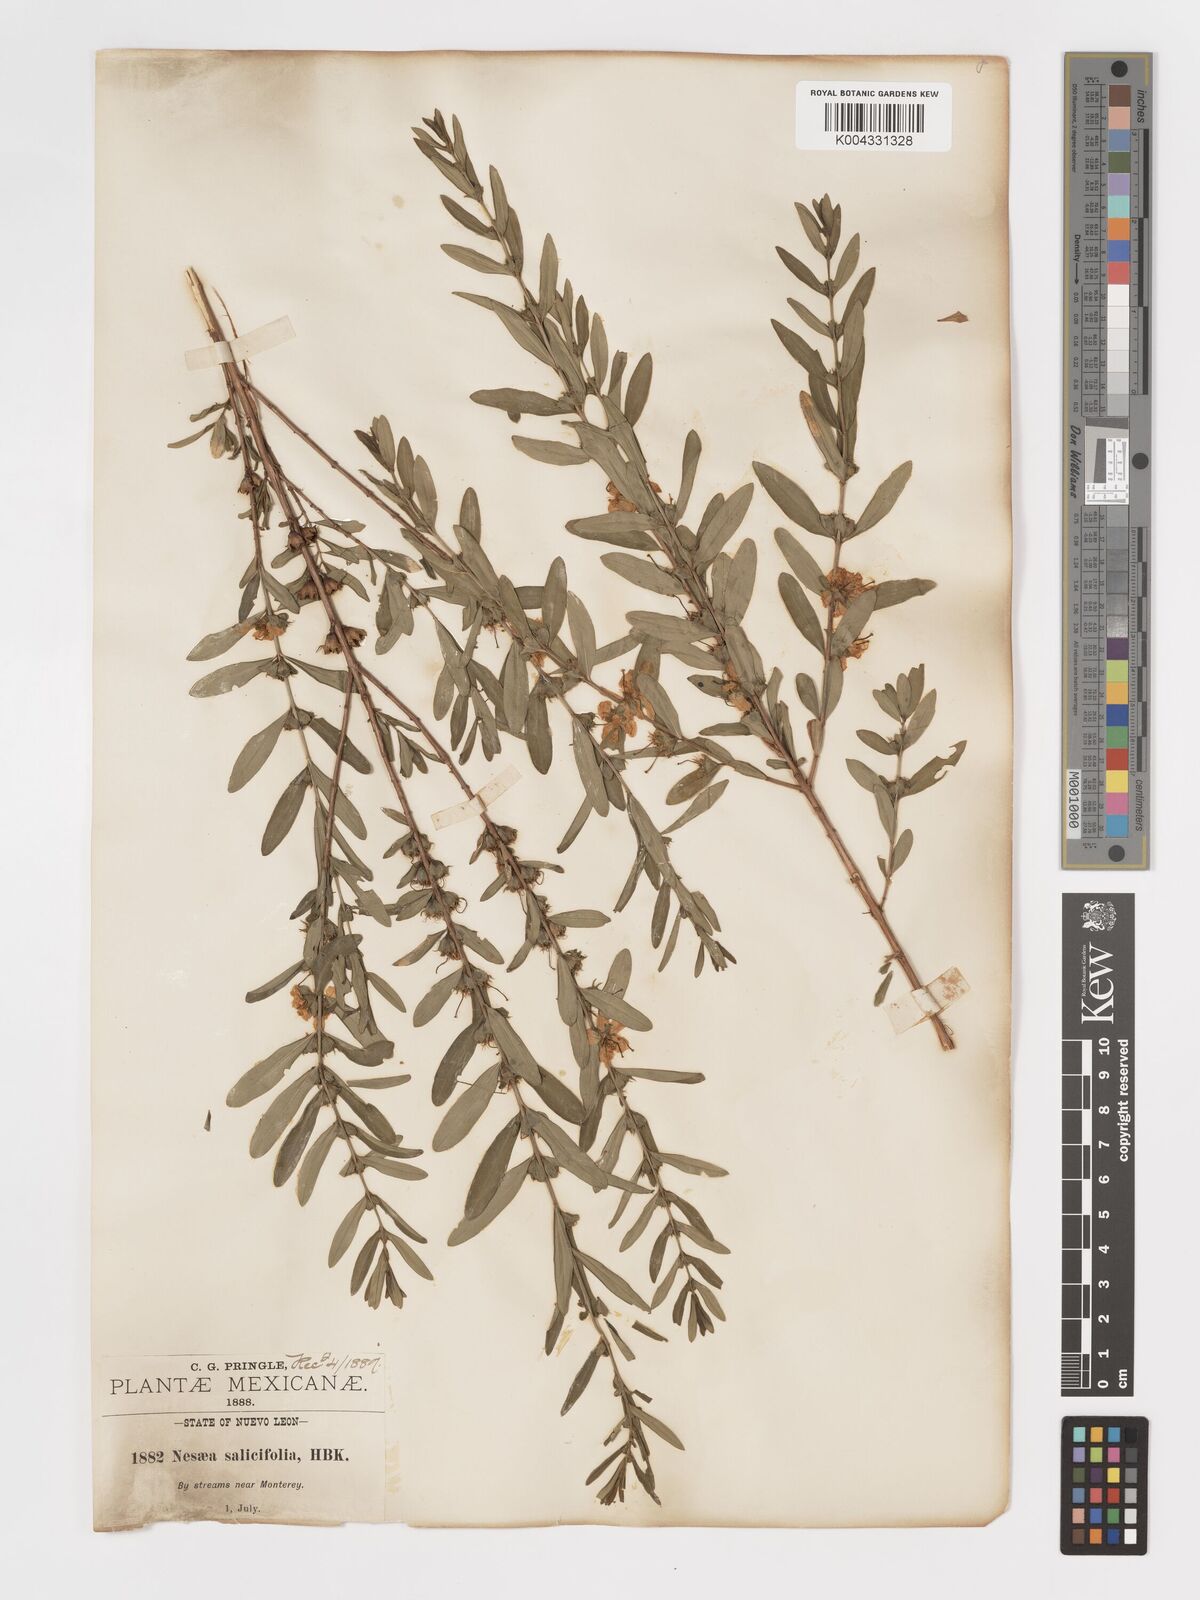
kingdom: Plantae
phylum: Tracheophyta
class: Magnoliopsida
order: Myrtales
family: Lythraceae
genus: Heimia
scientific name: Heimia salicifolia
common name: Willow-leaf heimia
